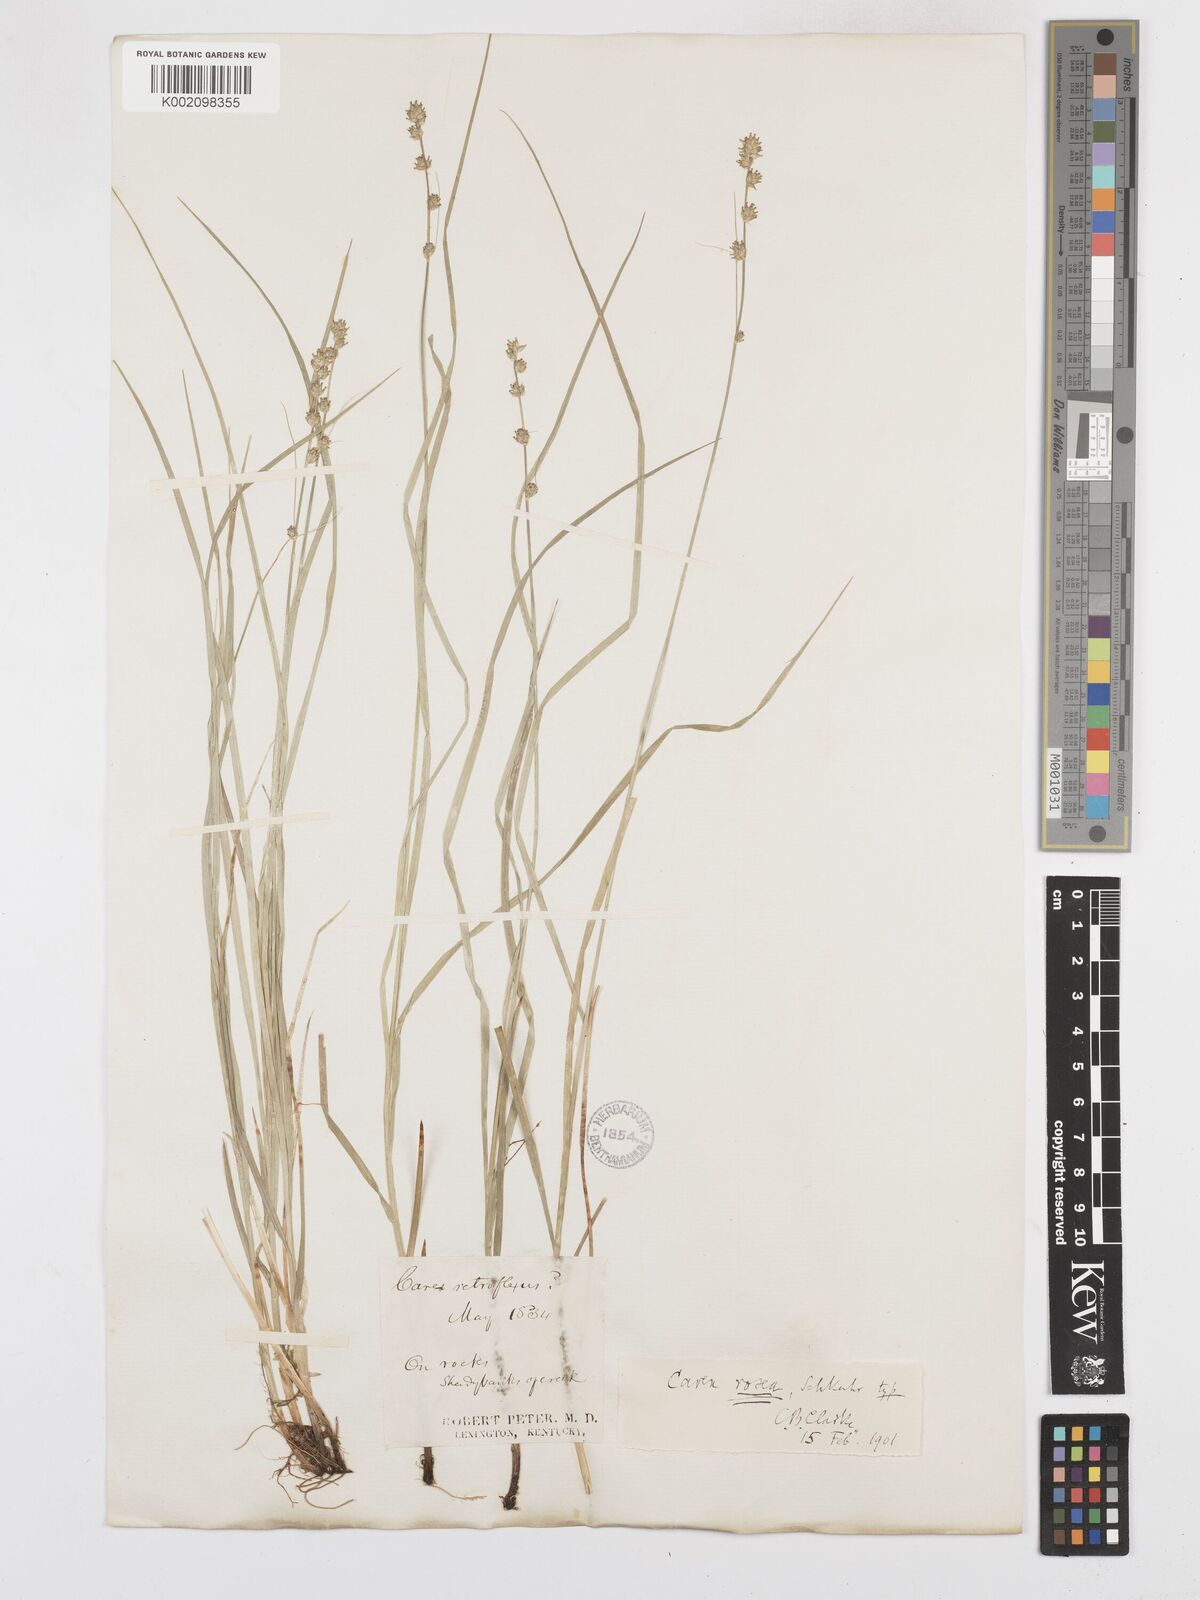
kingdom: Plantae
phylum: Tracheophyta
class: Liliopsida
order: Poales
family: Cyperaceae
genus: Carex
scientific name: Carex rosea
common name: Curly-styled wood sedge
